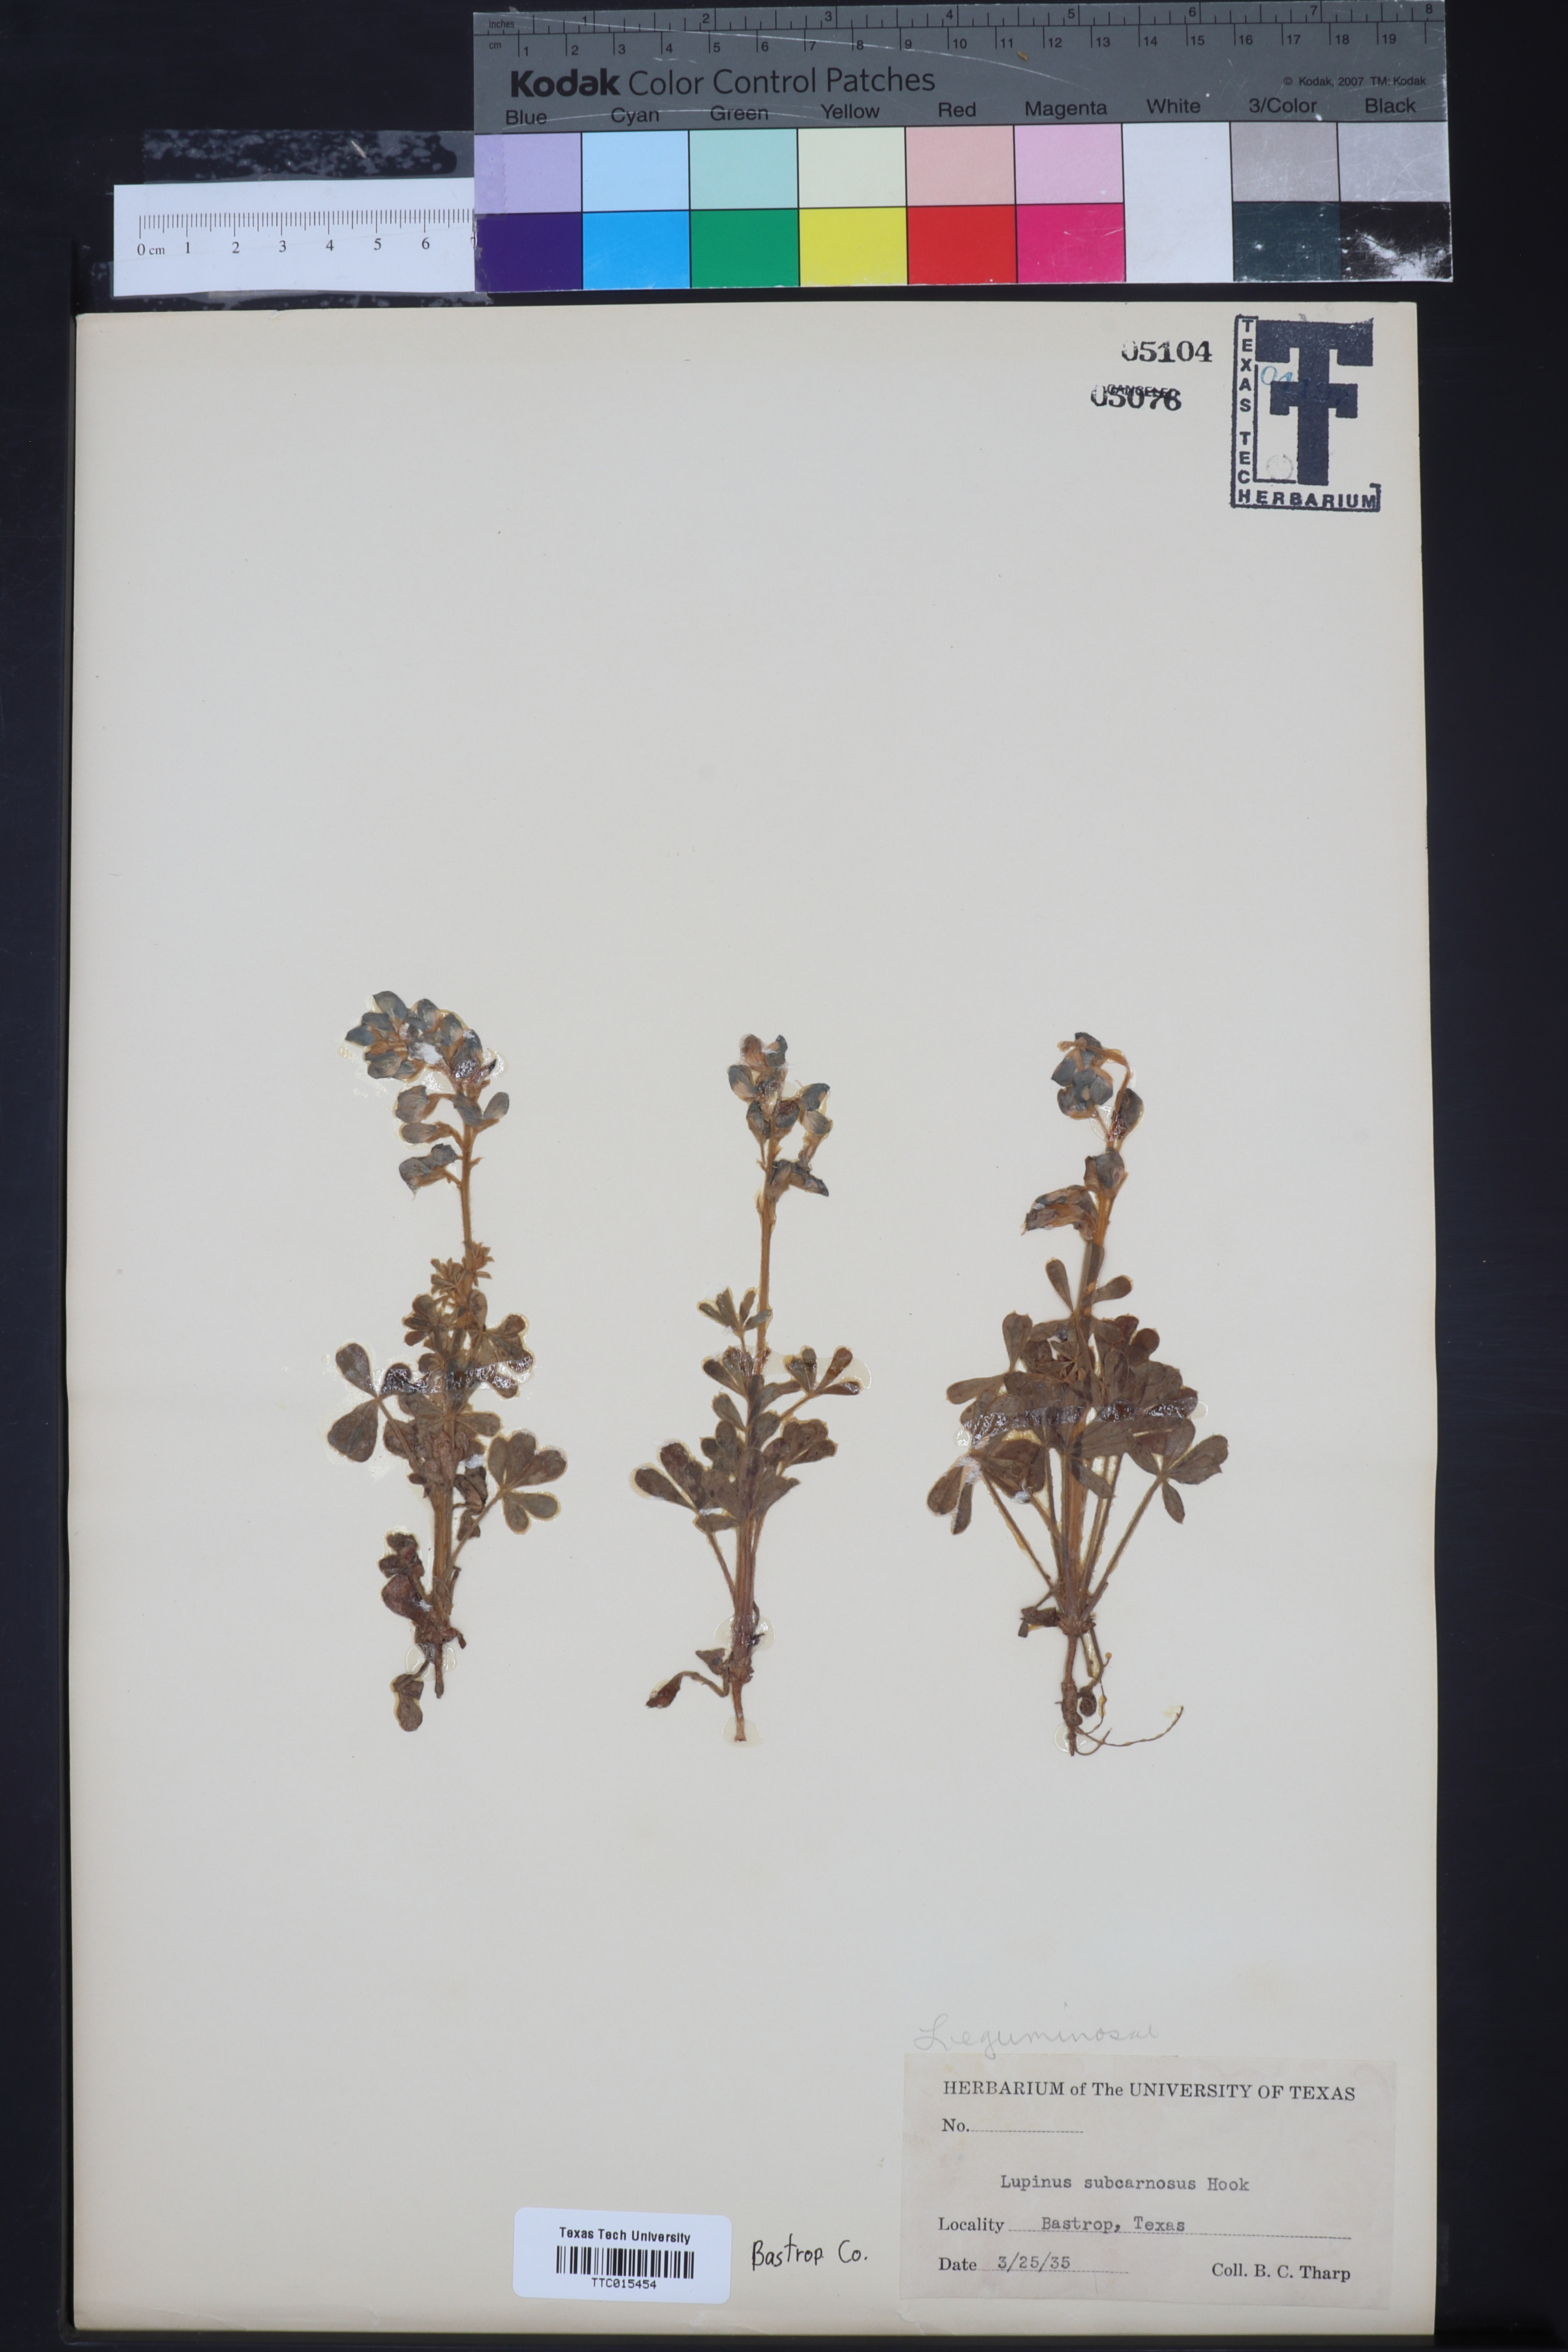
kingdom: Plantae
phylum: Tracheophyta
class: Magnoliopsida
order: Fabales
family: Fabaceae
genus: Lupinus
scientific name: Lupinus subcarnosus
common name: Texas bluebonnet
